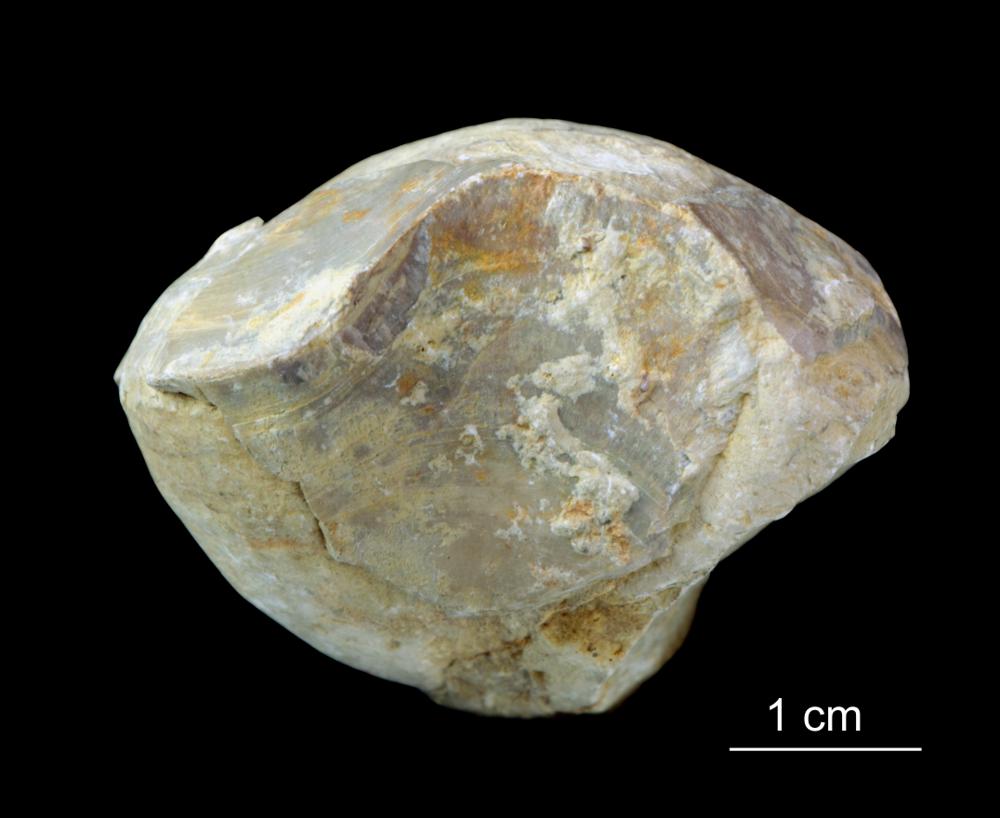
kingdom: Animalia
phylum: Brachiopoda
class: Rhynchonellata
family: Porambonitidae
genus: Porambonites
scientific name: Porambonites
